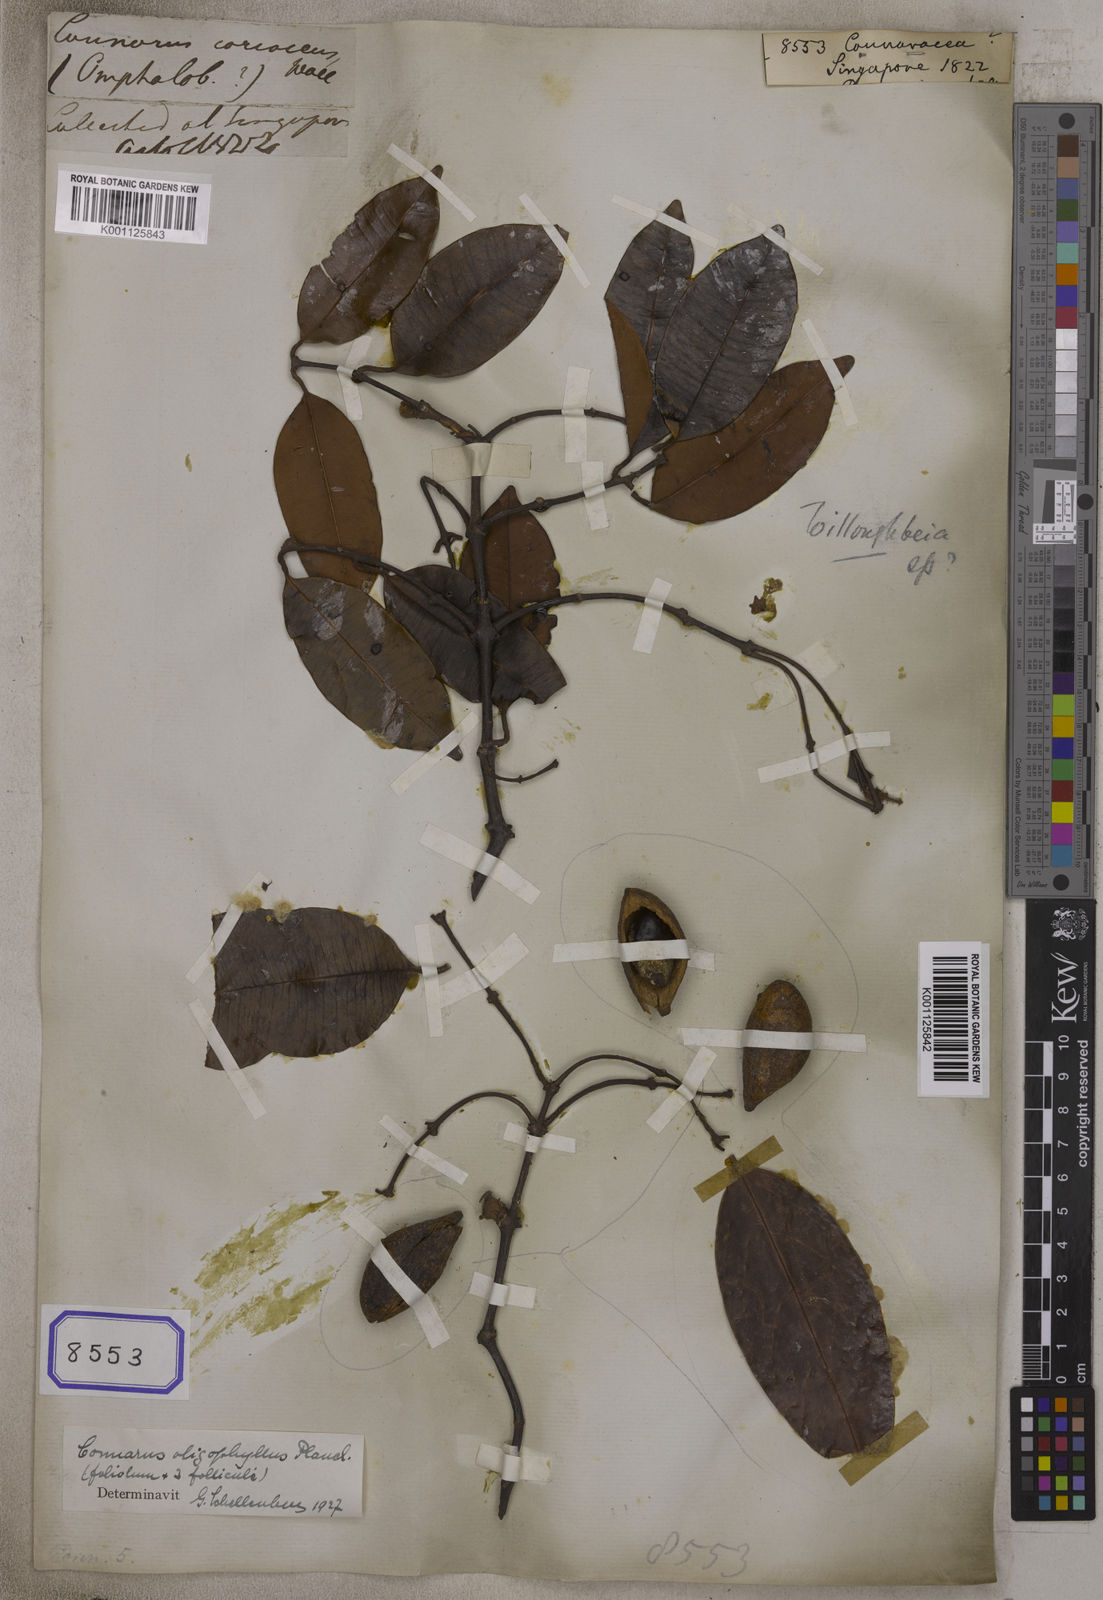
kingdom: Plantae
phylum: Tracheophyta
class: Magnoliopsida
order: Oxalidales
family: Connaraceae
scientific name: Connaraceae
